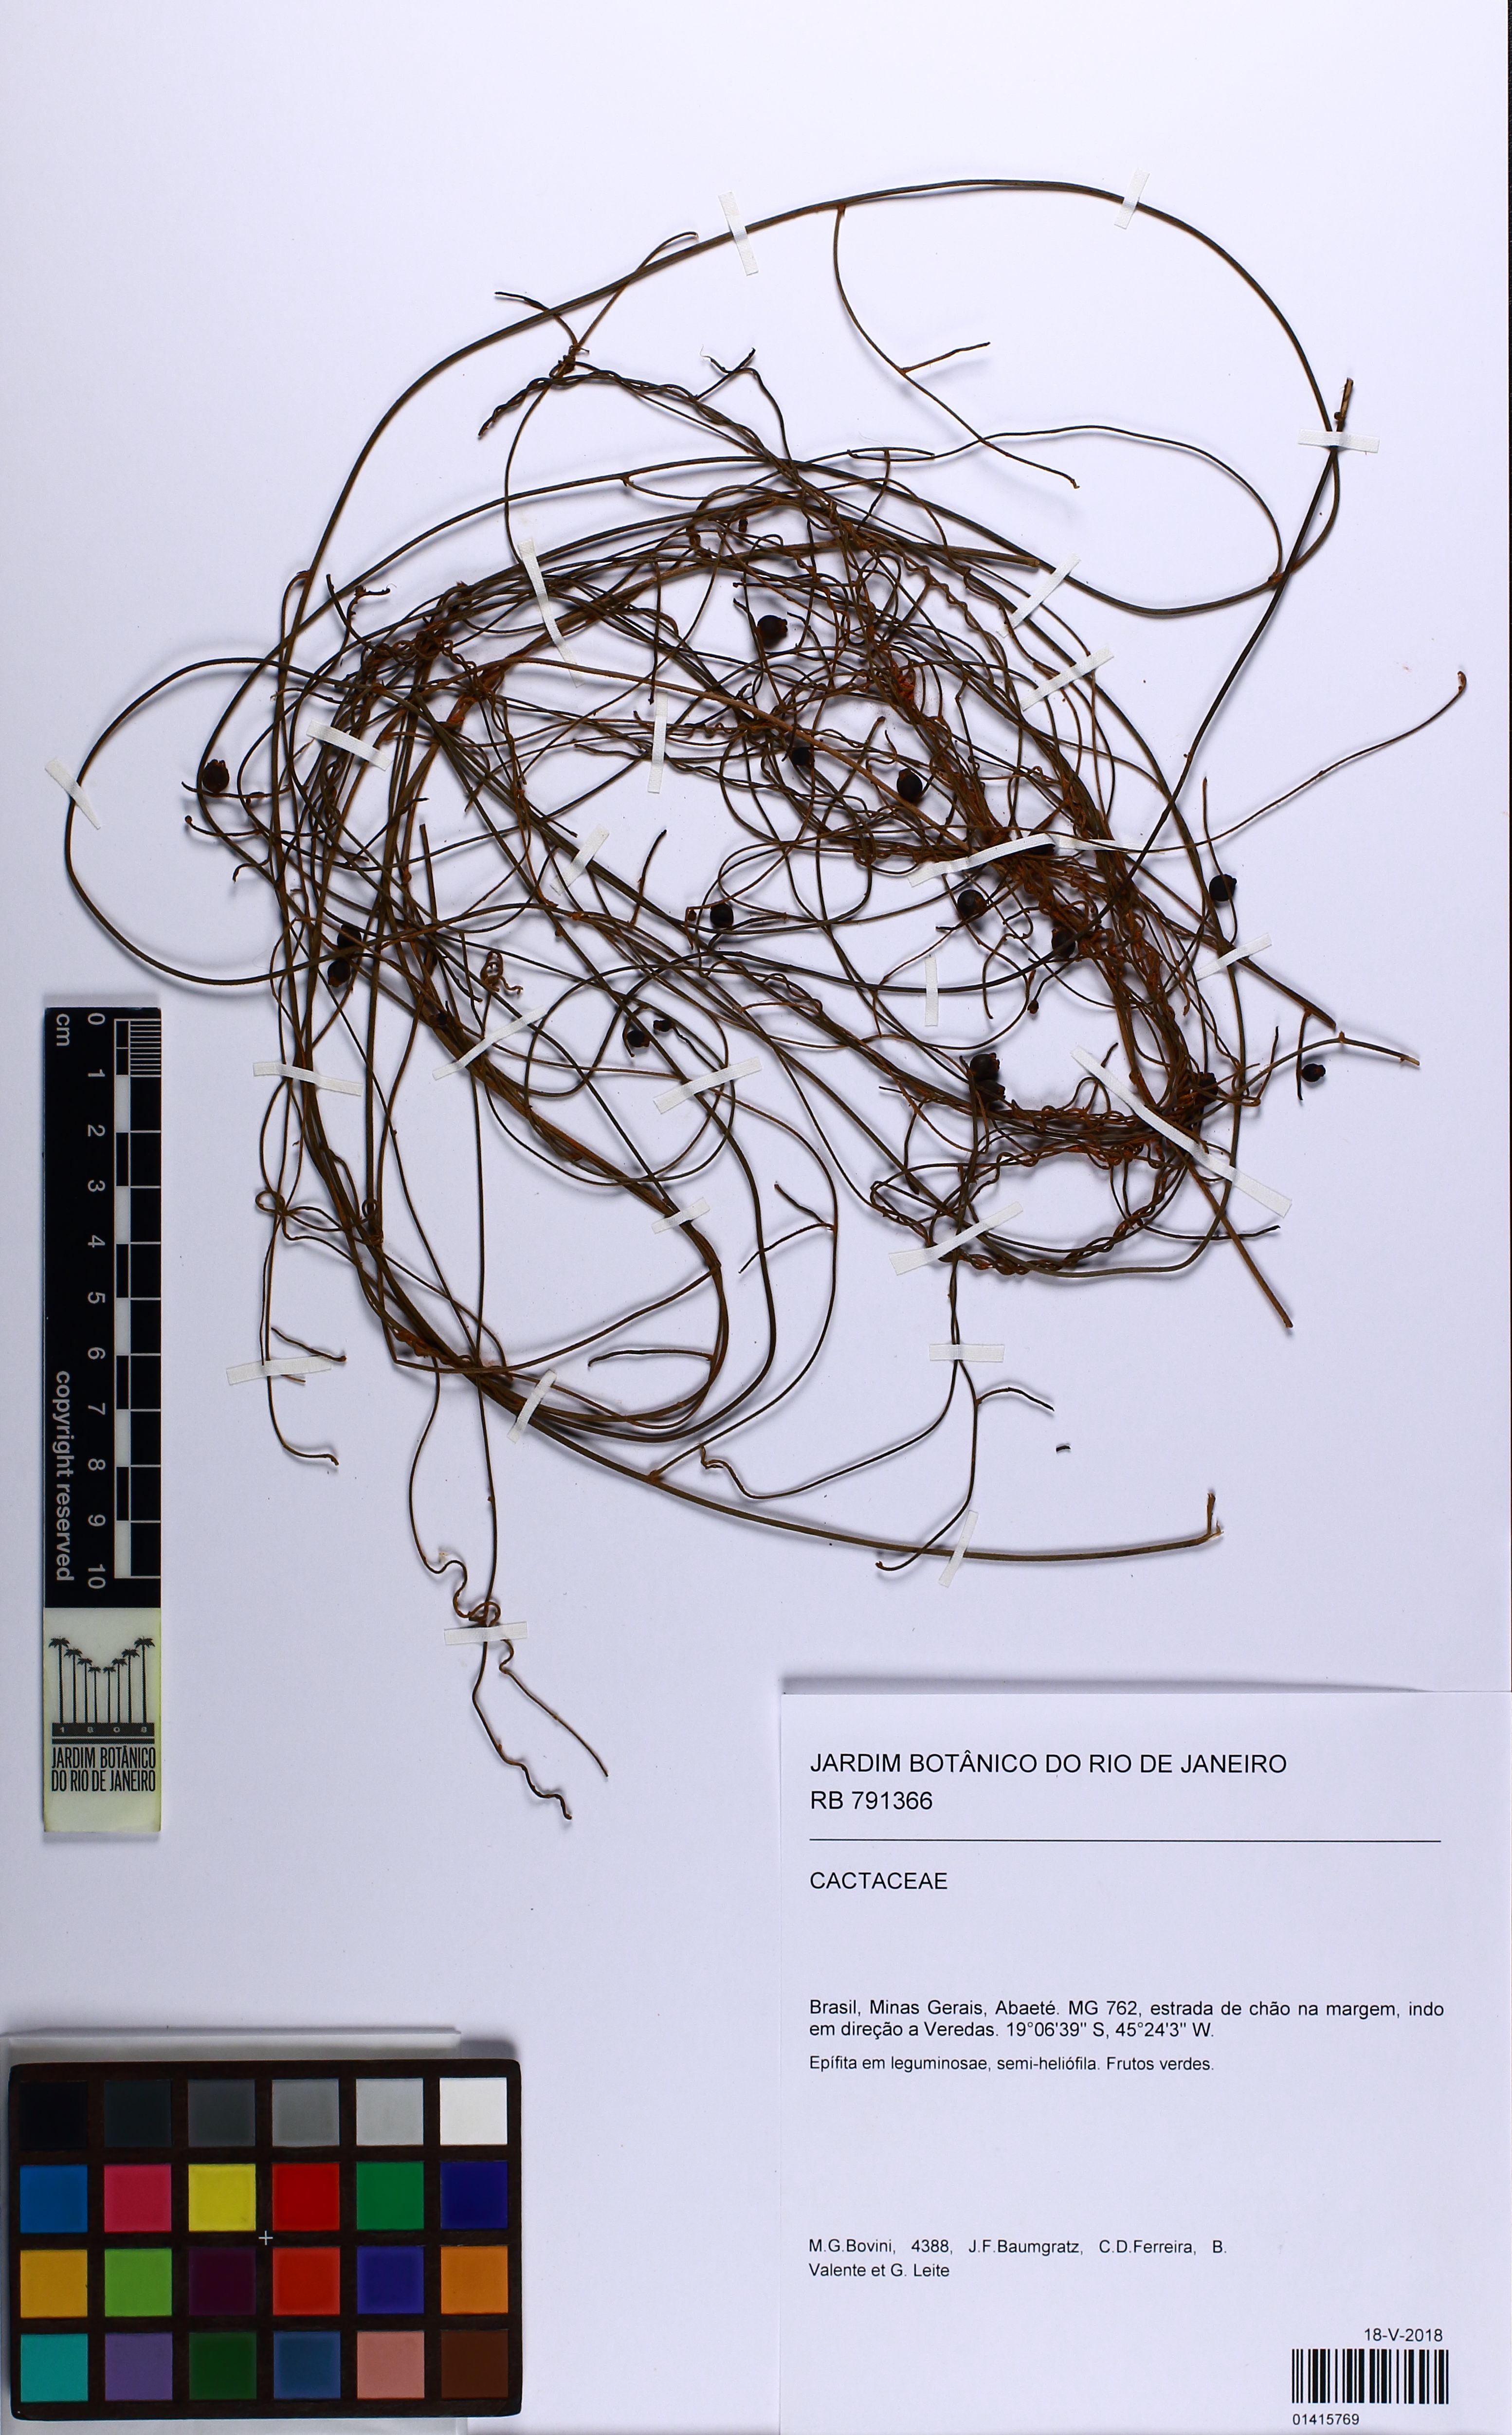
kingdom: Plantae
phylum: Tracheophyta
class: Magnoliopsida
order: Laurales
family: Lauraceae
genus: Cassytha
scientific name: Cassytha filiformis
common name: Dodder-laurel
